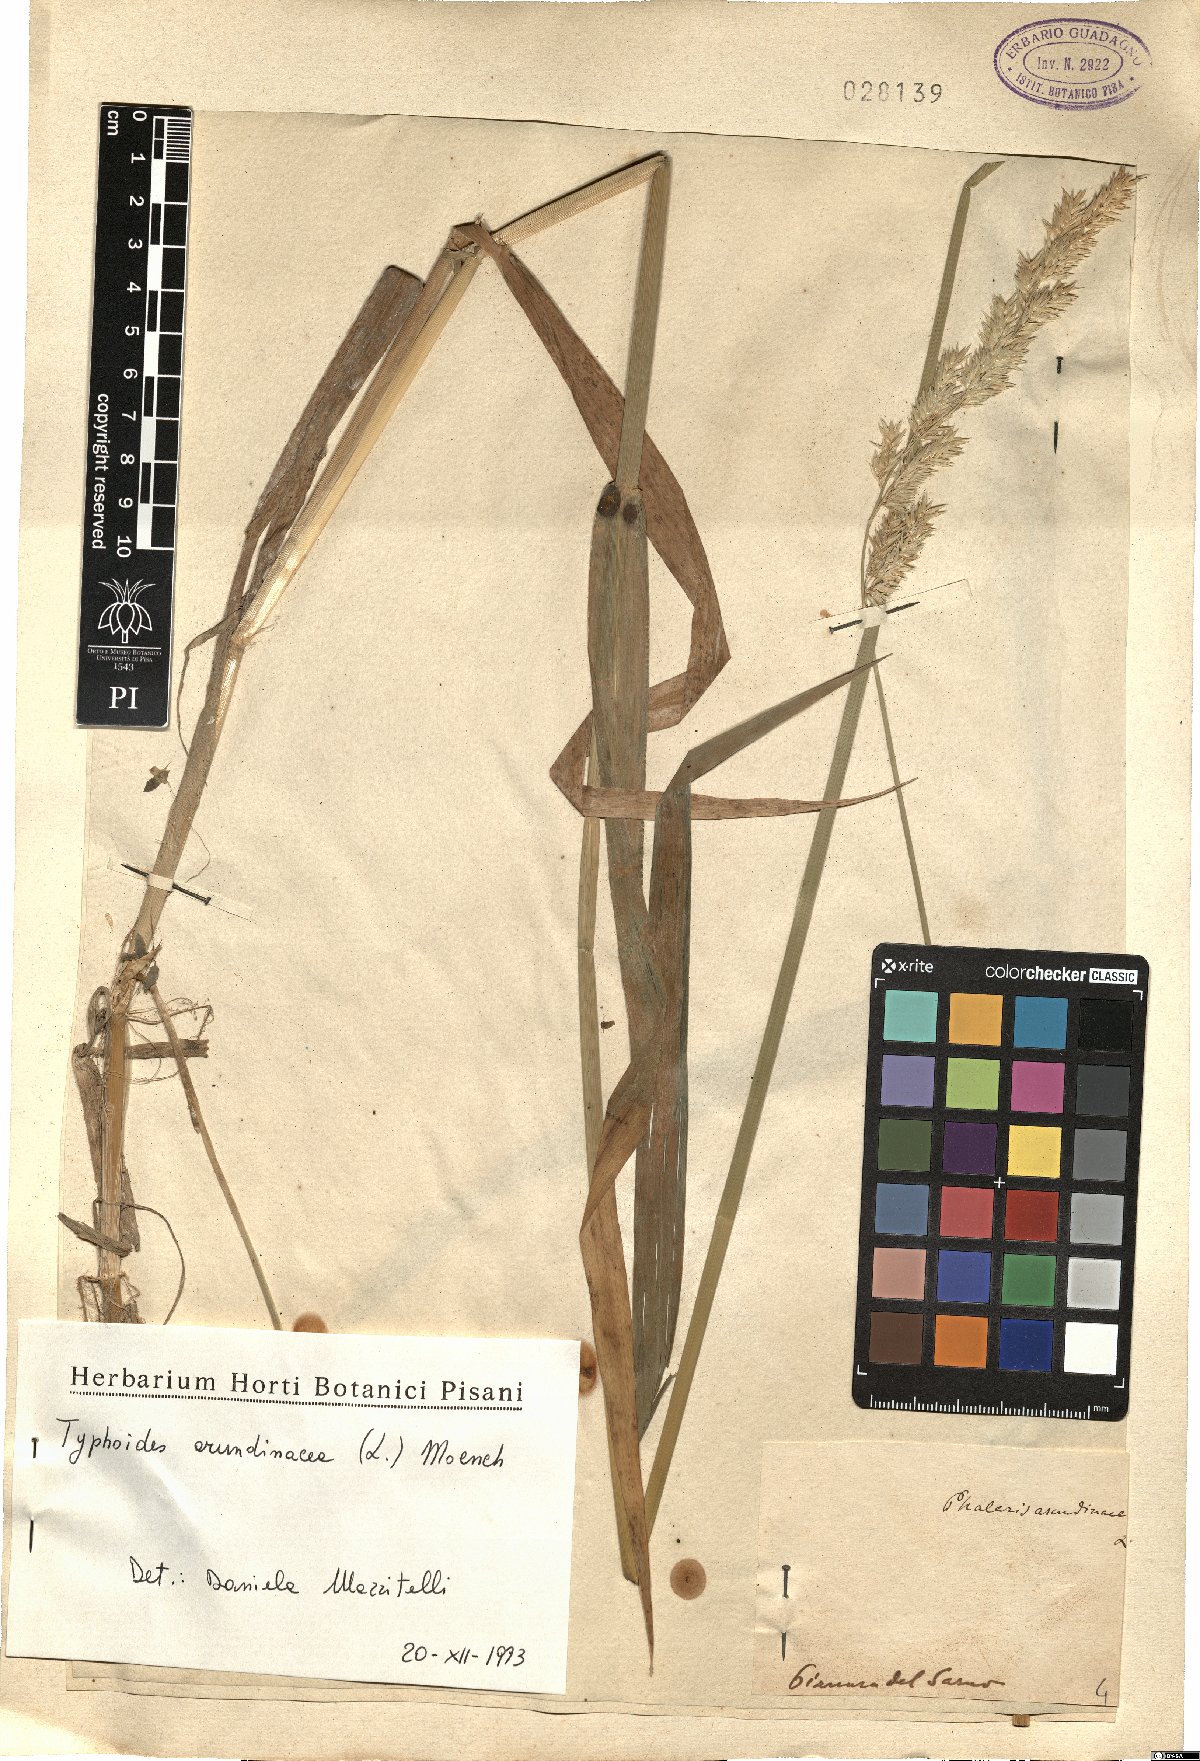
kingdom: Plantae
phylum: Tracheophyta
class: Liliopsida
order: Poales
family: Poaceae
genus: Phalaris
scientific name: Phalaris arundinacea
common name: Reed canary-grass
